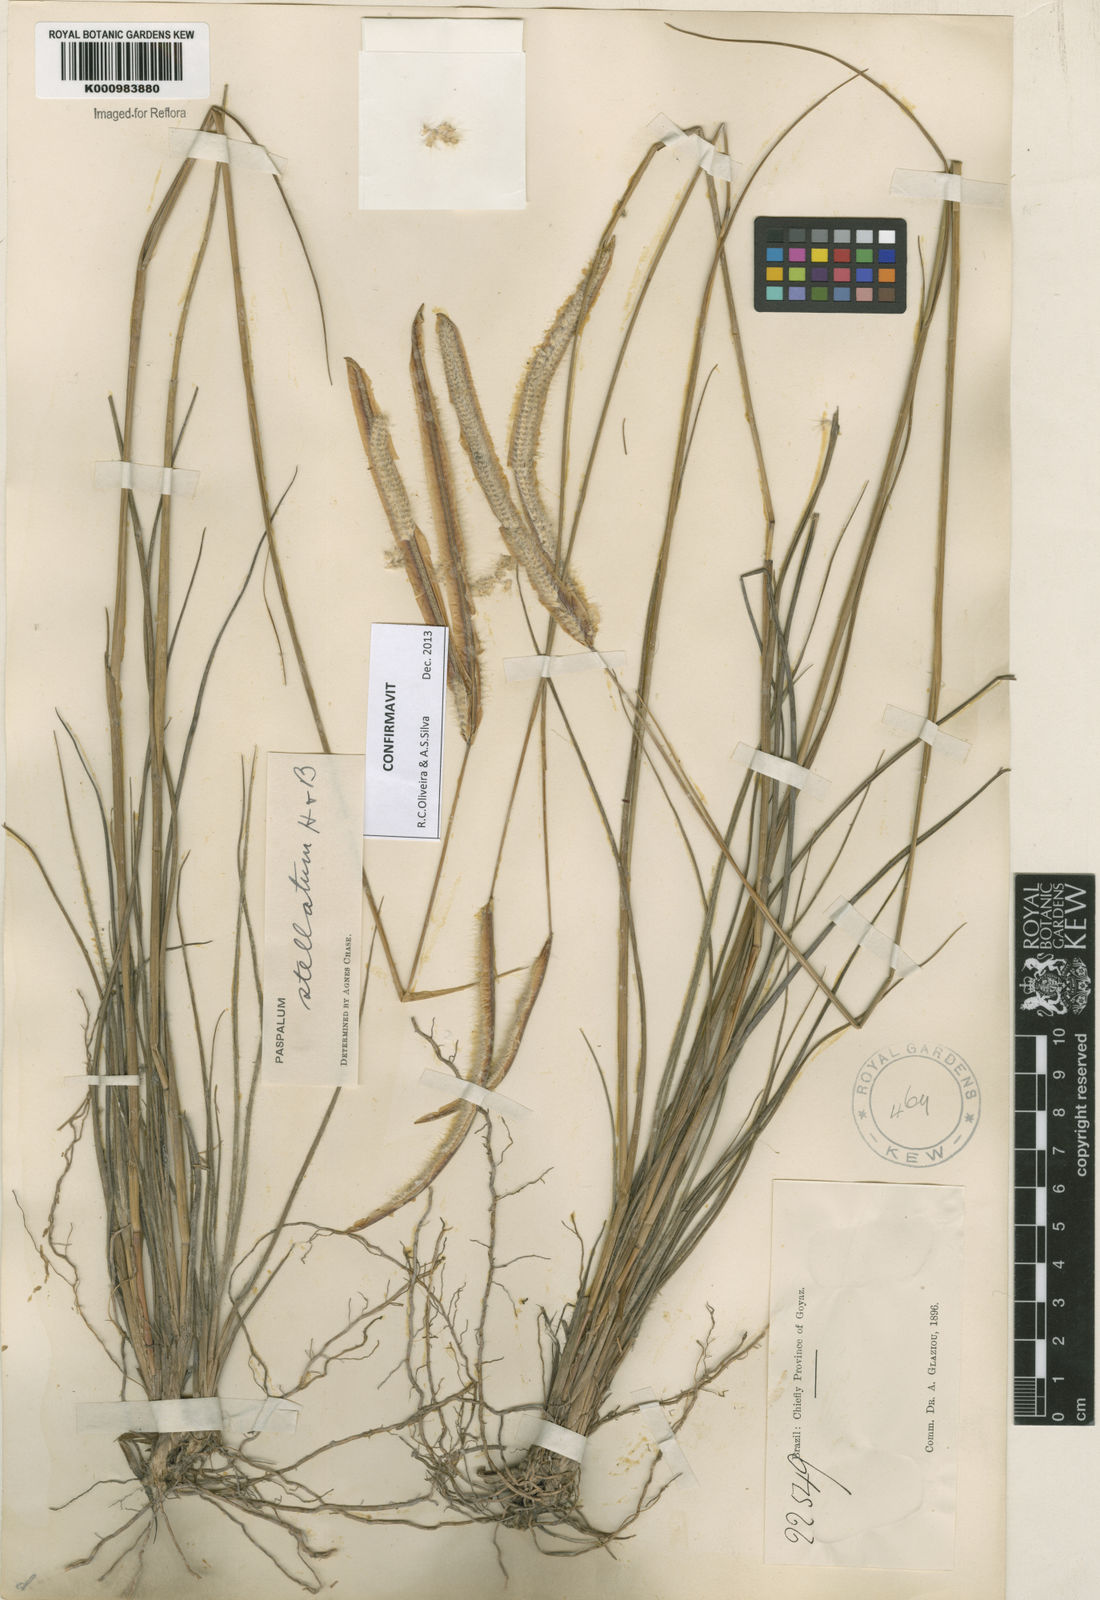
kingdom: Plantae
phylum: Tracheophyta
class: Liliopsida
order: Poales
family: Poaceae
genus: Paspalum
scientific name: Paspalum
